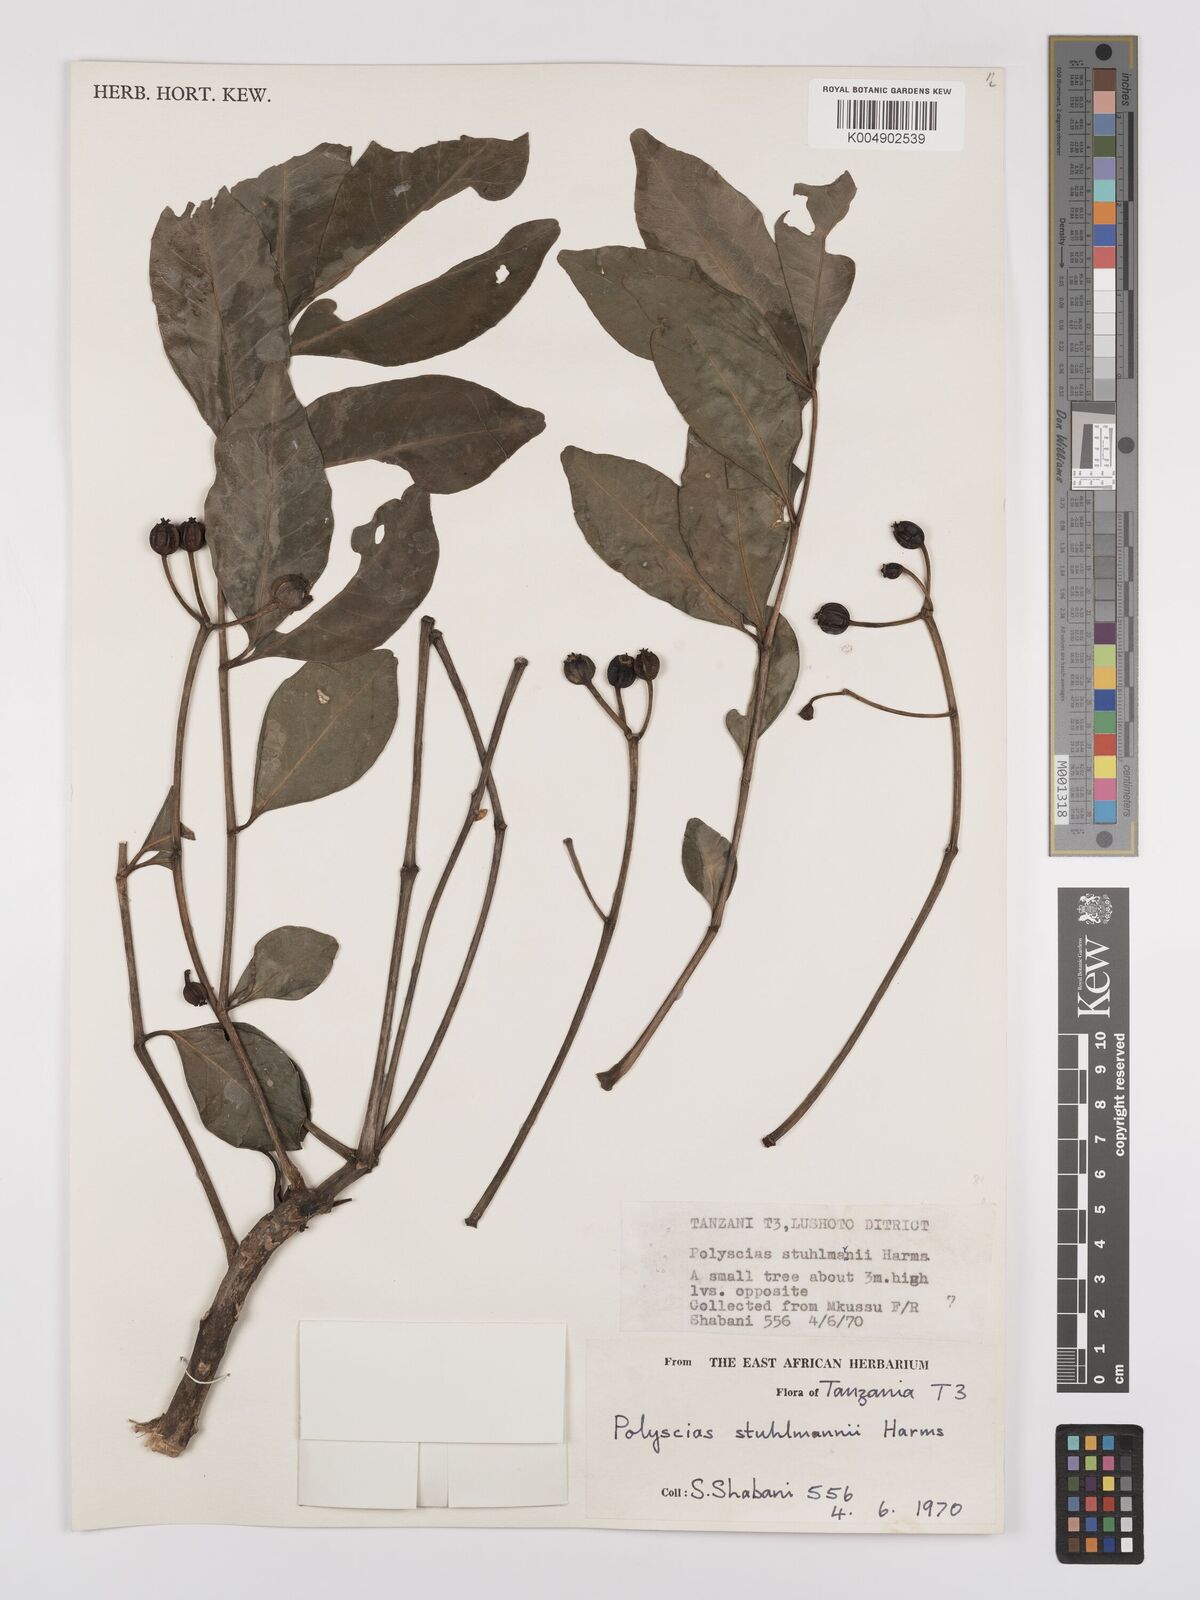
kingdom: Plantae
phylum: Tracheophyta
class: Magnoliopsida
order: Apiales
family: Araliaceae
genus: Polyscias
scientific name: Polyscias stuhlmannii
